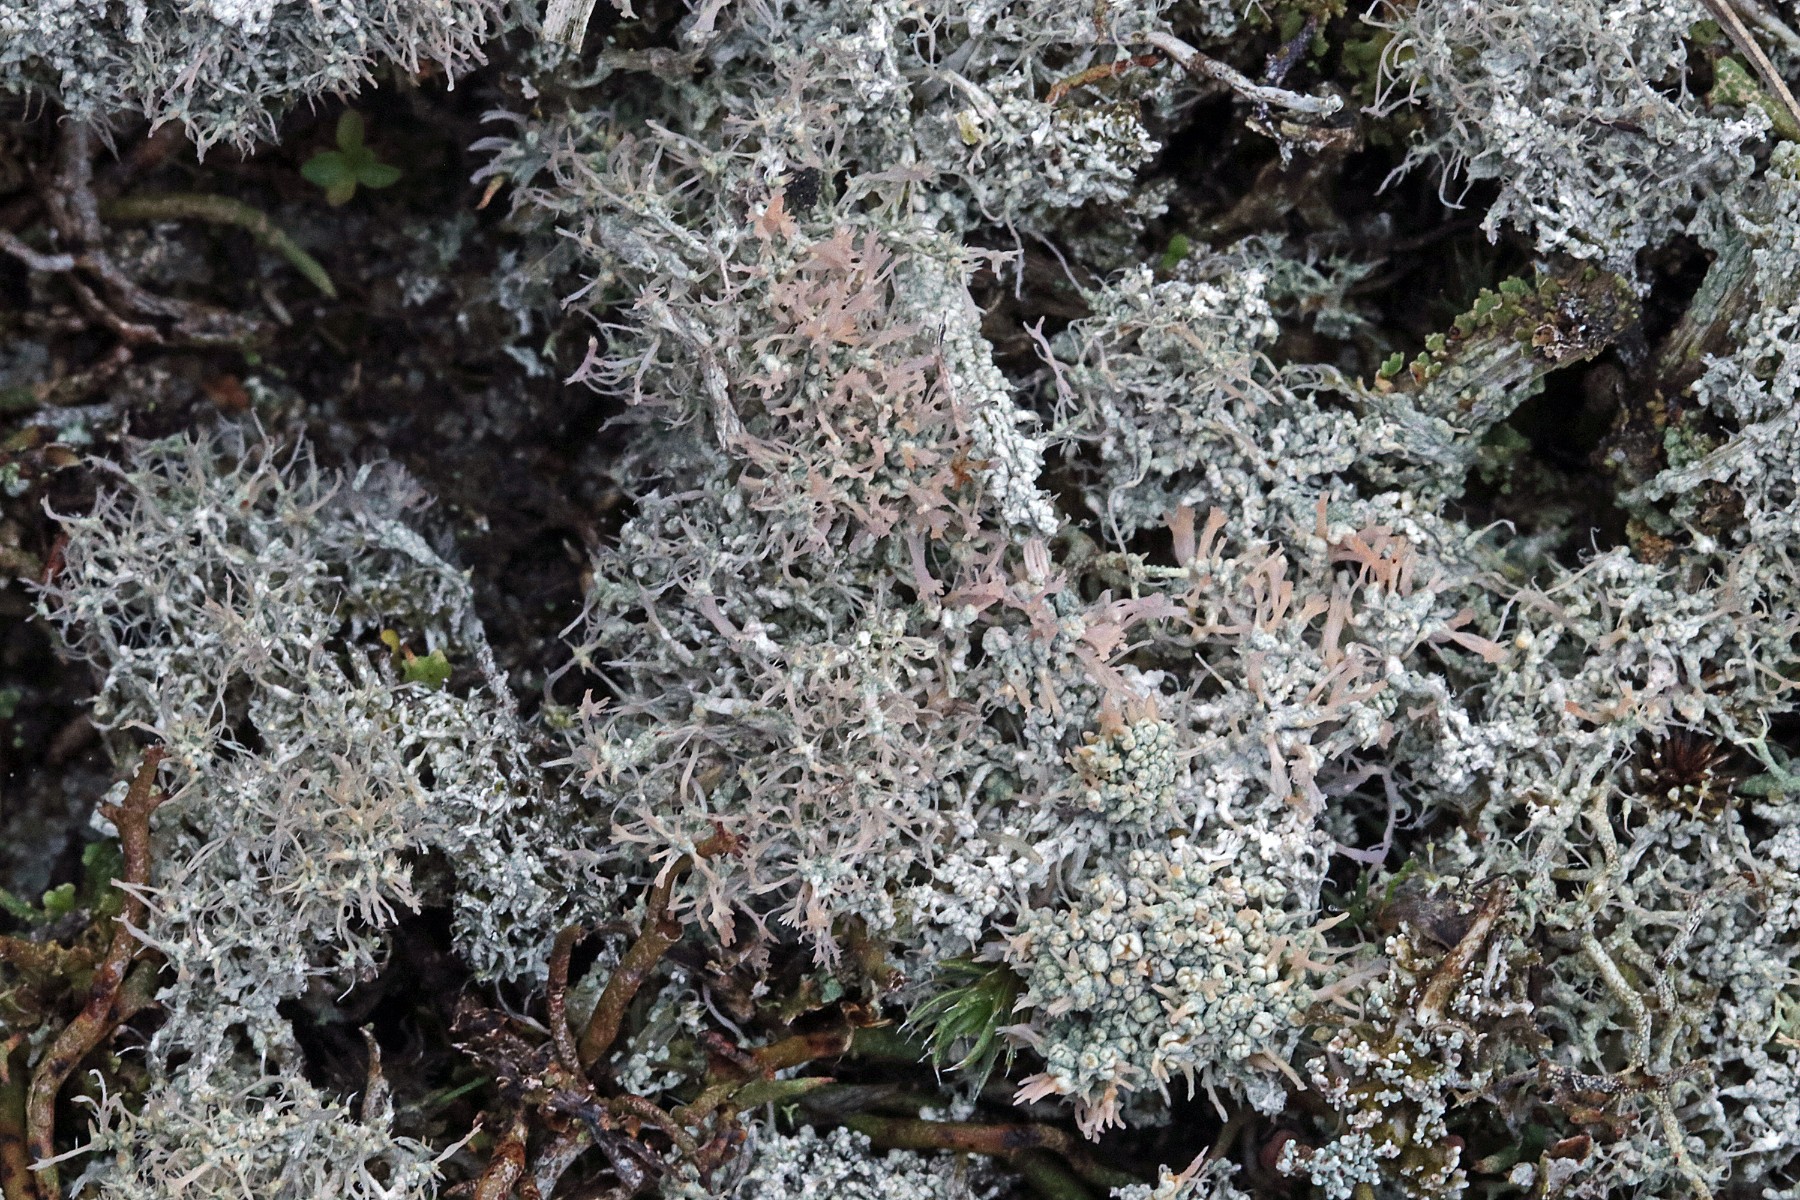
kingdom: Fungi
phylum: Ascomycota
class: Lecanoromycetes
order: Pertusariales
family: Ochrolechiaceae
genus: Ochrolechia
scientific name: Ochrolechia frigida
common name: fjeld-blegskivelav
